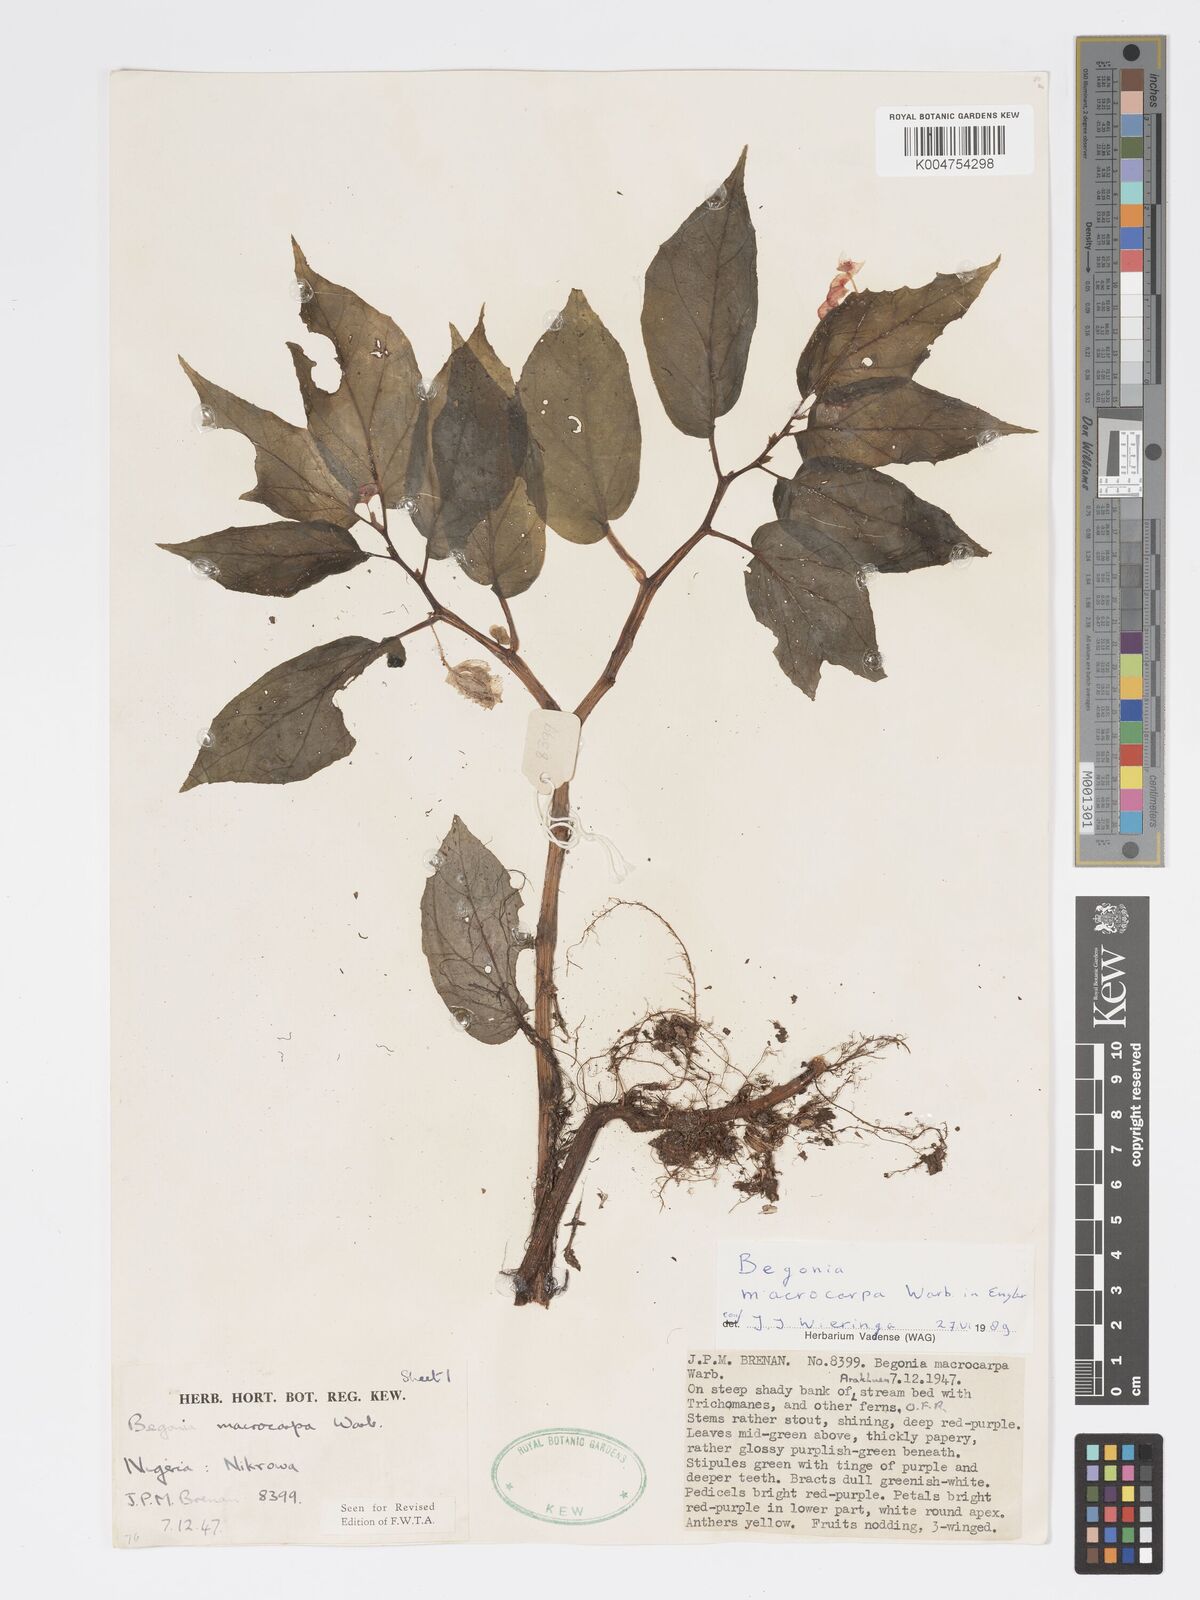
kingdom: Plantae
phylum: Tracheophyta
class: Magnoliopsida
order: Cucurbitales
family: Begoniaceae
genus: Begonia
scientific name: Begonia macrocarpa
